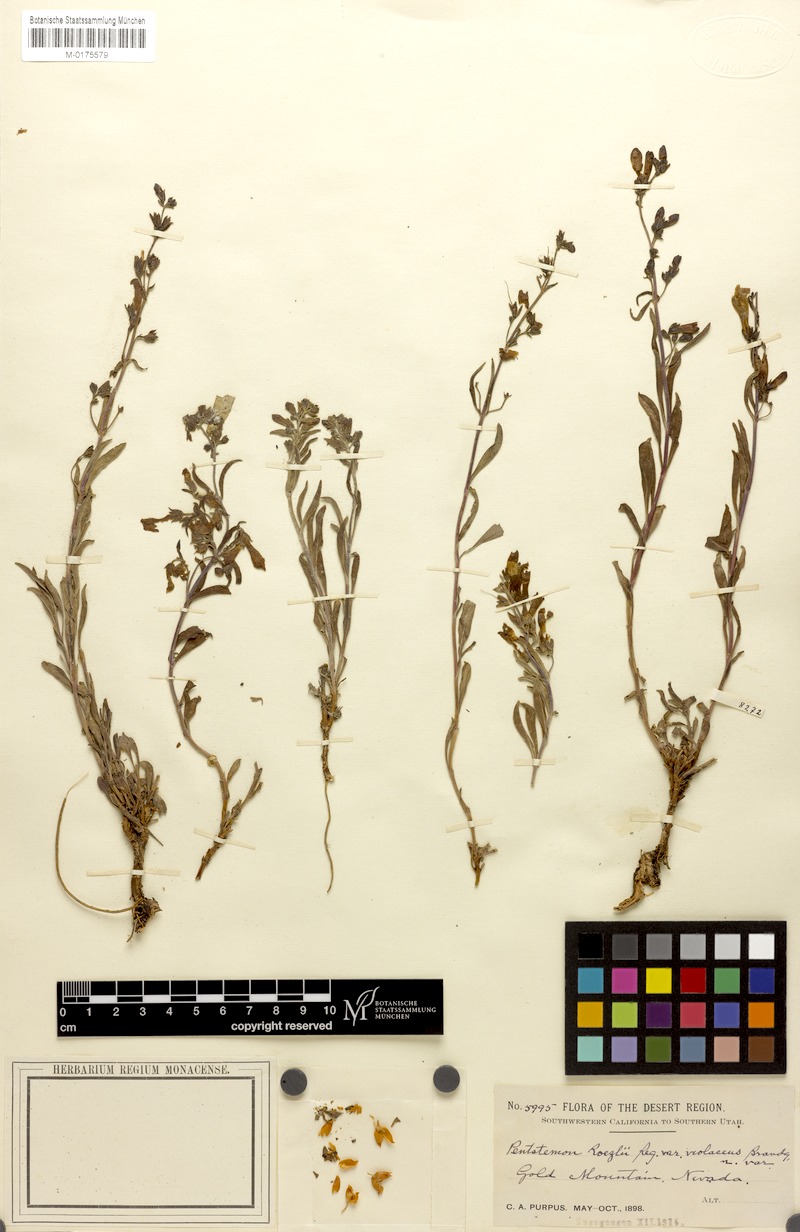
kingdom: Plantae
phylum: Tracheophyta
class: Magnoliopsida
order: Lamiales
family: Plantaginaceae
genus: Penstemon
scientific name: Penstemon roezlii
